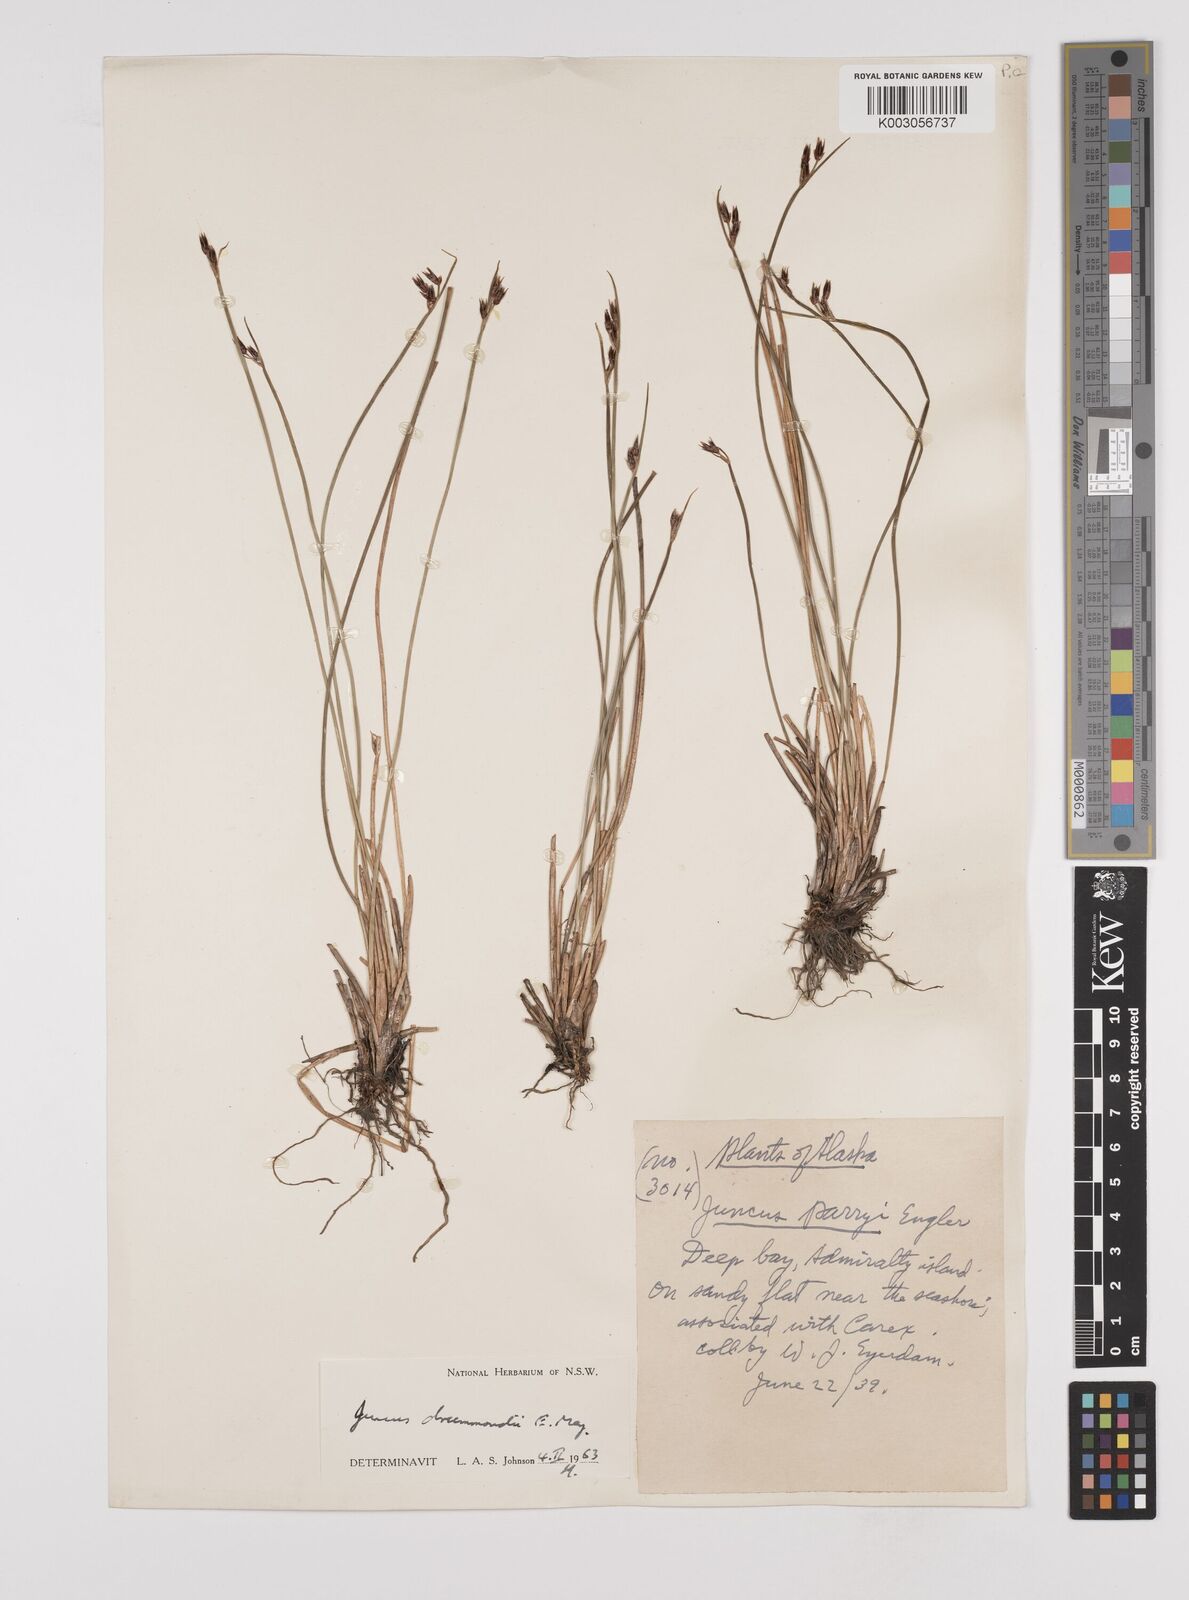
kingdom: Plantae
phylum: Tracheophyta
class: Liliopsida
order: Poales
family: Juncaceae
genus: Juncus
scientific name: Juncus drummondii
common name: Drummond's rush
